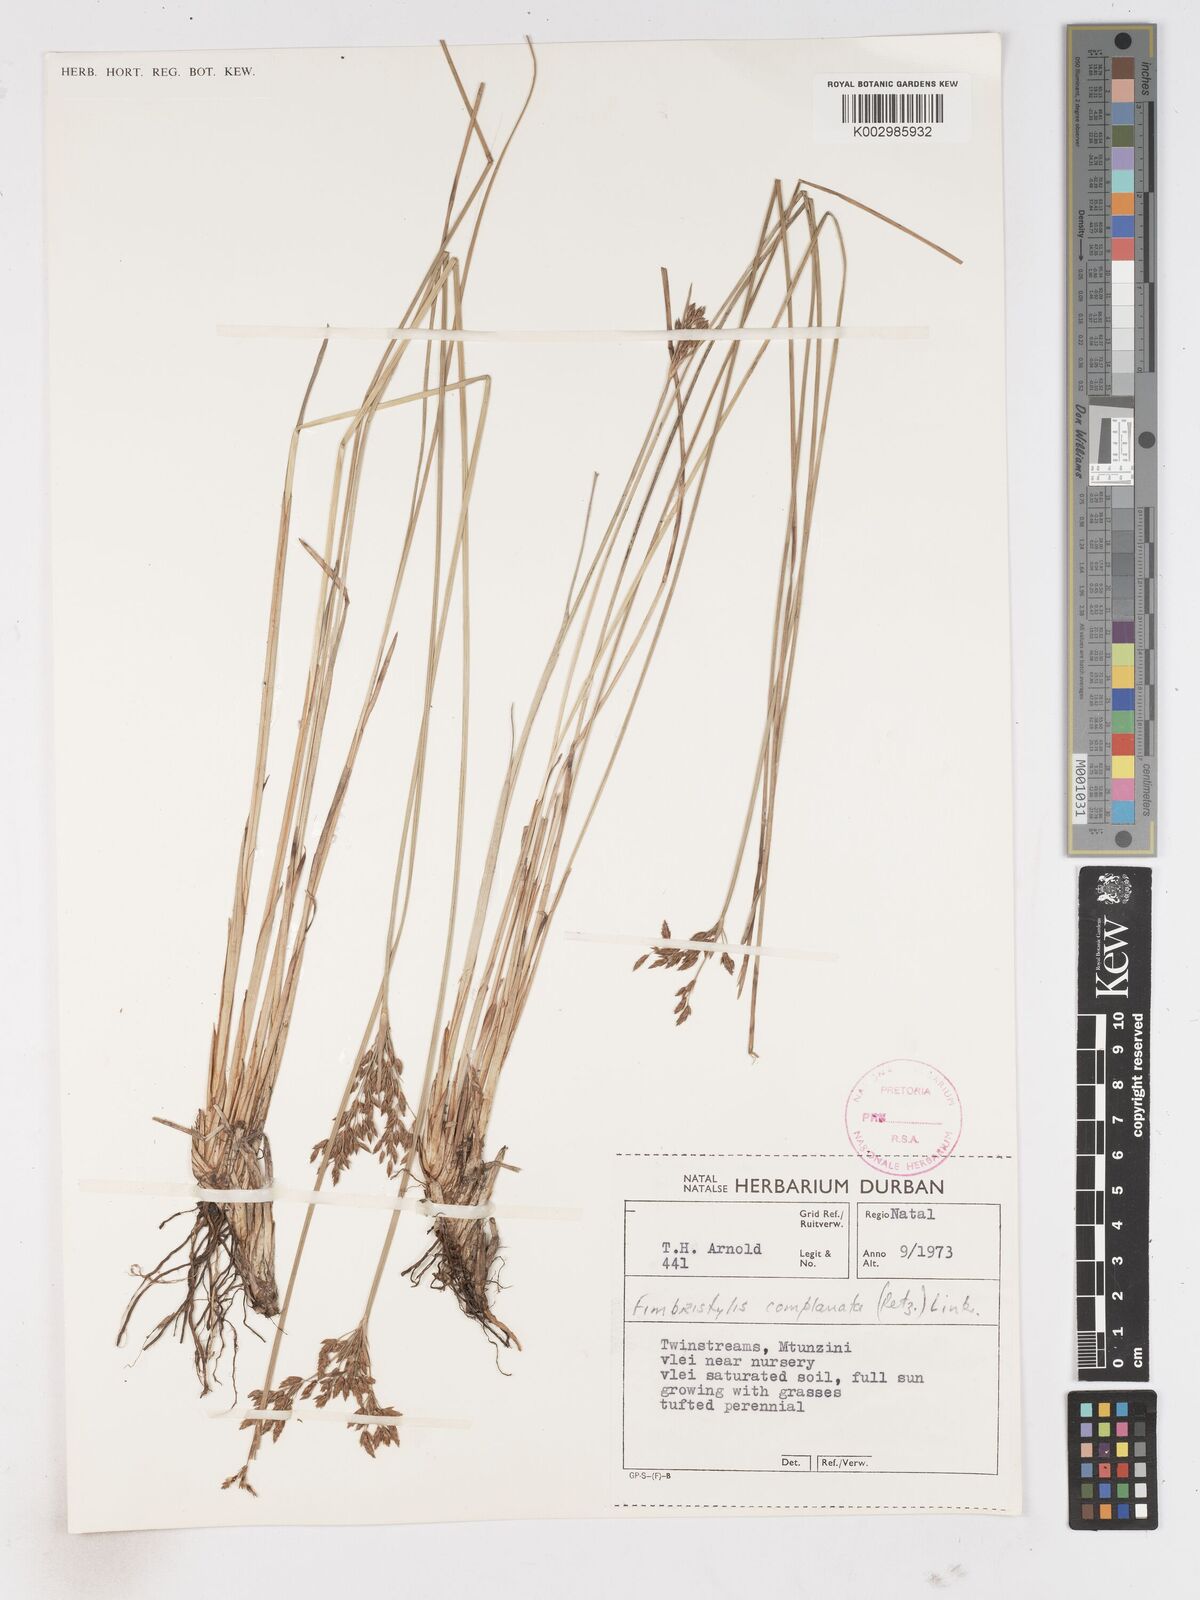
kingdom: Plantae
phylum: Tracheophyta
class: Liliopsida
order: Poales
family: Cyperaceae
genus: Fimbristylis
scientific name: Fimbristylis complanata
